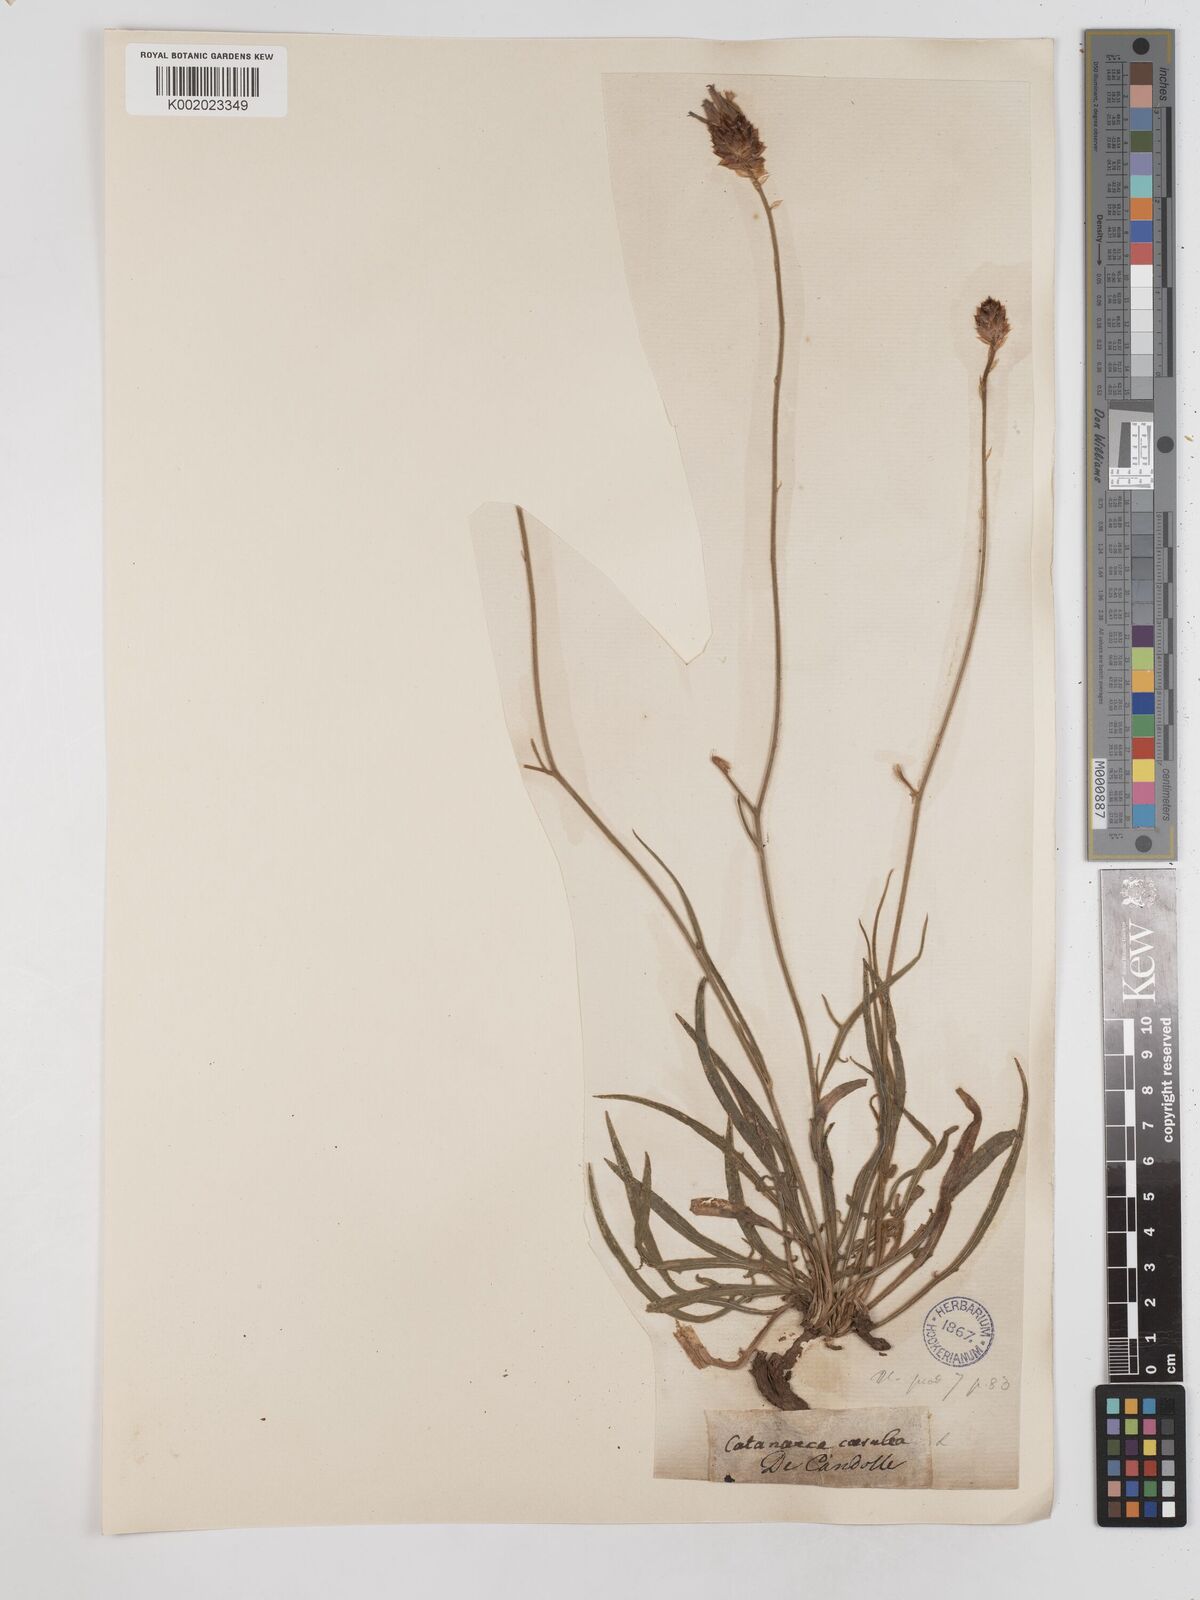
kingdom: Plantae
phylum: Tracheophyta
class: Magnoliopsida
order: Asterales
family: Asteraceae
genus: Catananche
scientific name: Catananche caerulea
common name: Blue cupidone
